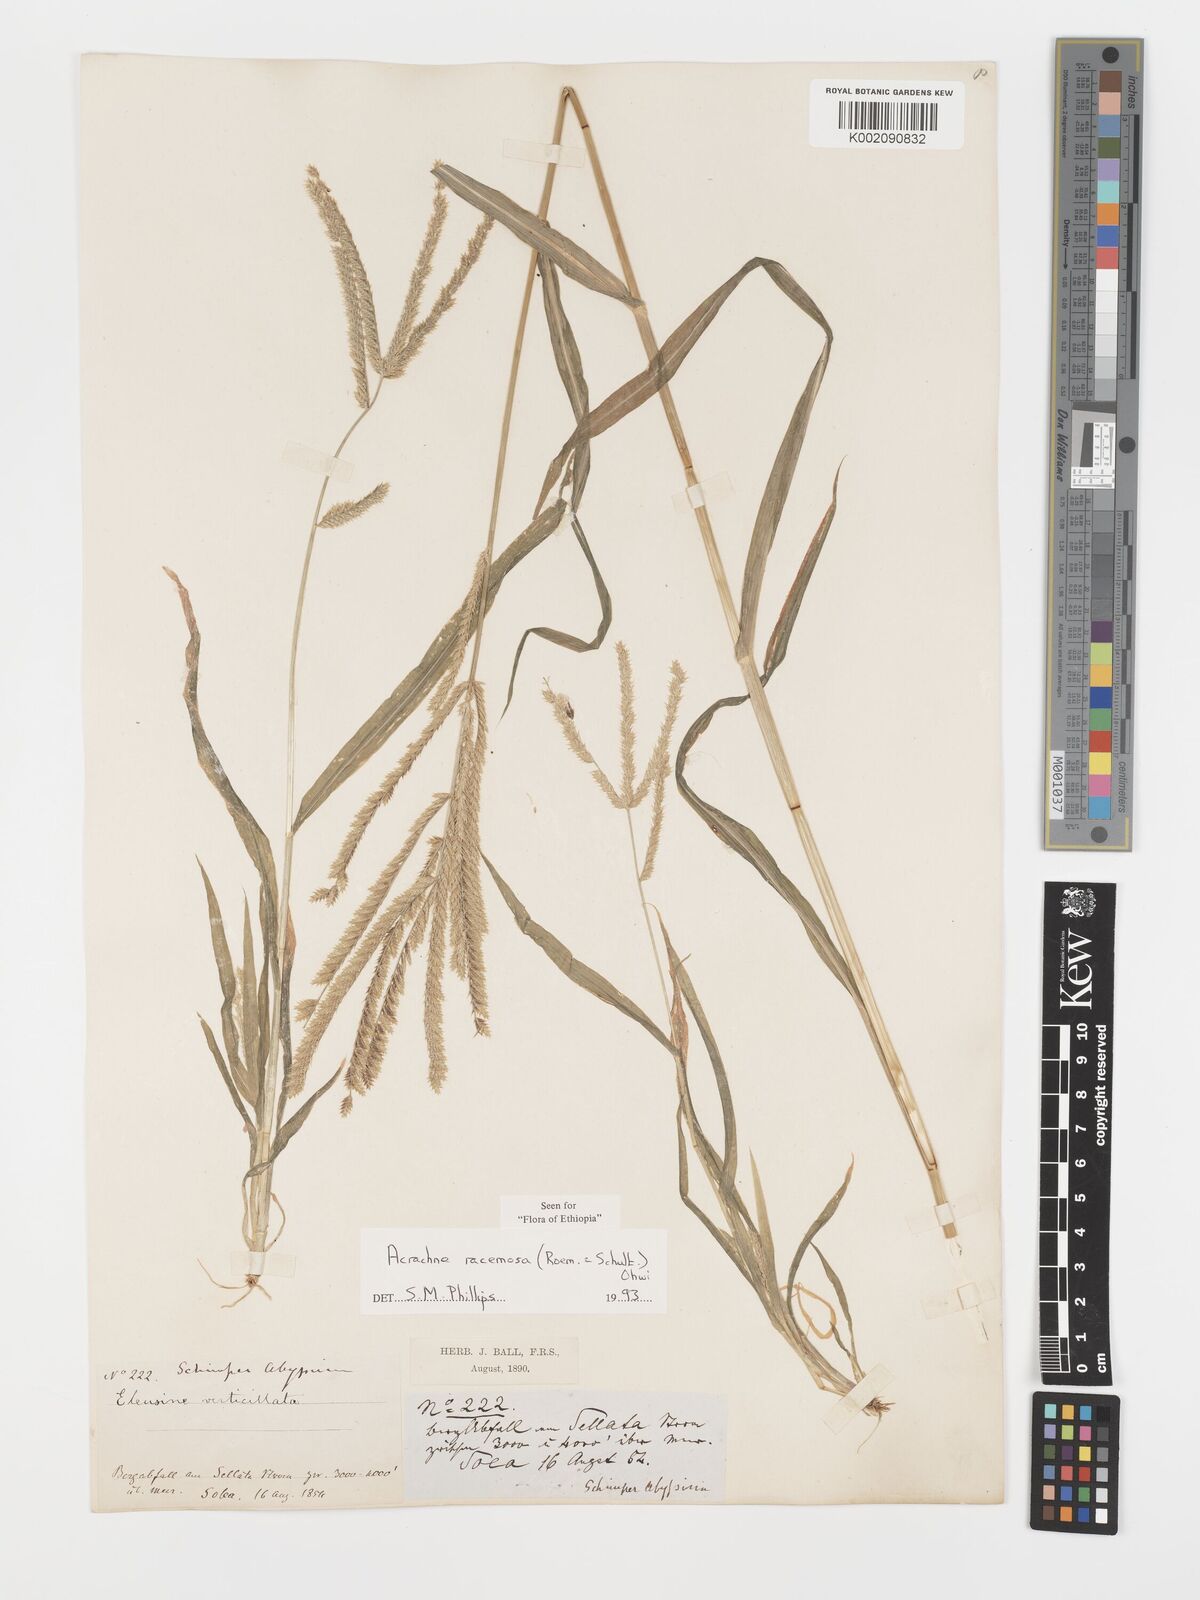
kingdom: Plantae
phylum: Tracheophyta
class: Liliopsida
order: Poales
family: Poaceae
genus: Acrachne
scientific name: Acrachne racemosa
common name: Goosegrass
